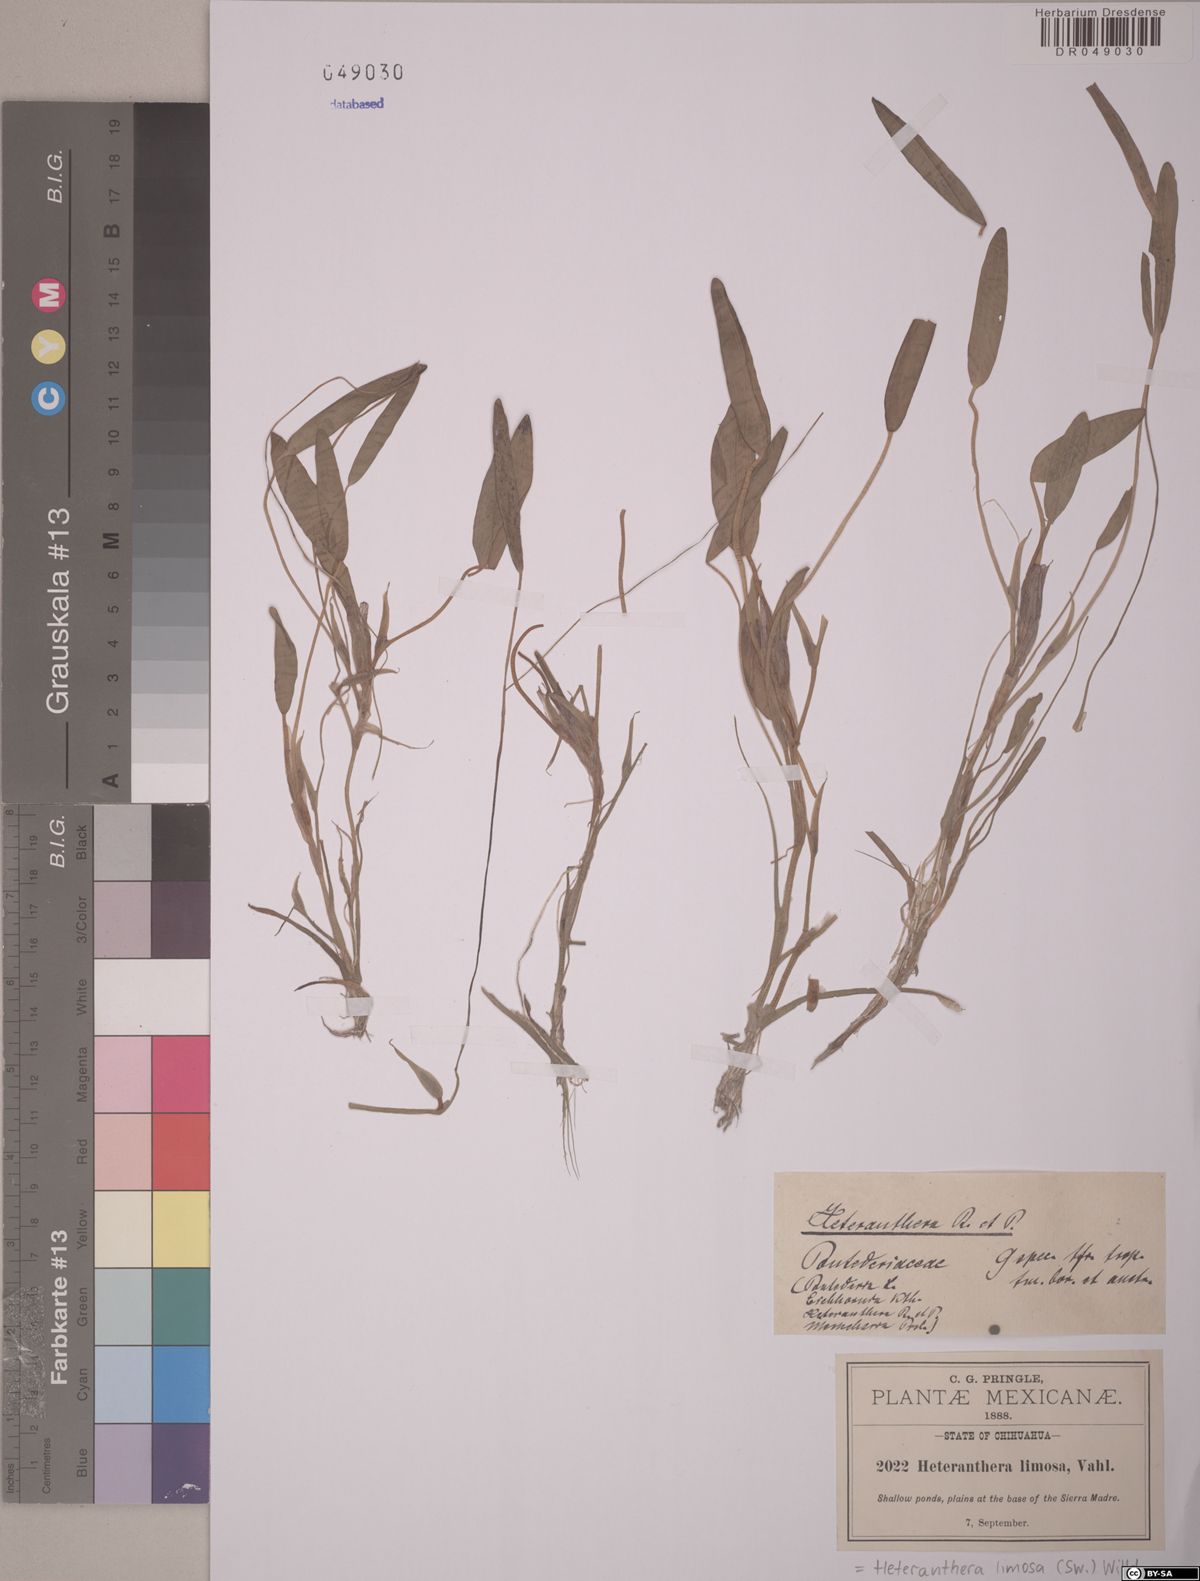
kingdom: Plantae
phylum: Tracheophyta
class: Liliopsida
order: Commelinales
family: Pontederiaceae
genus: Heteranthera
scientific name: Heteranthera limosa
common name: Blue mud-plantain
